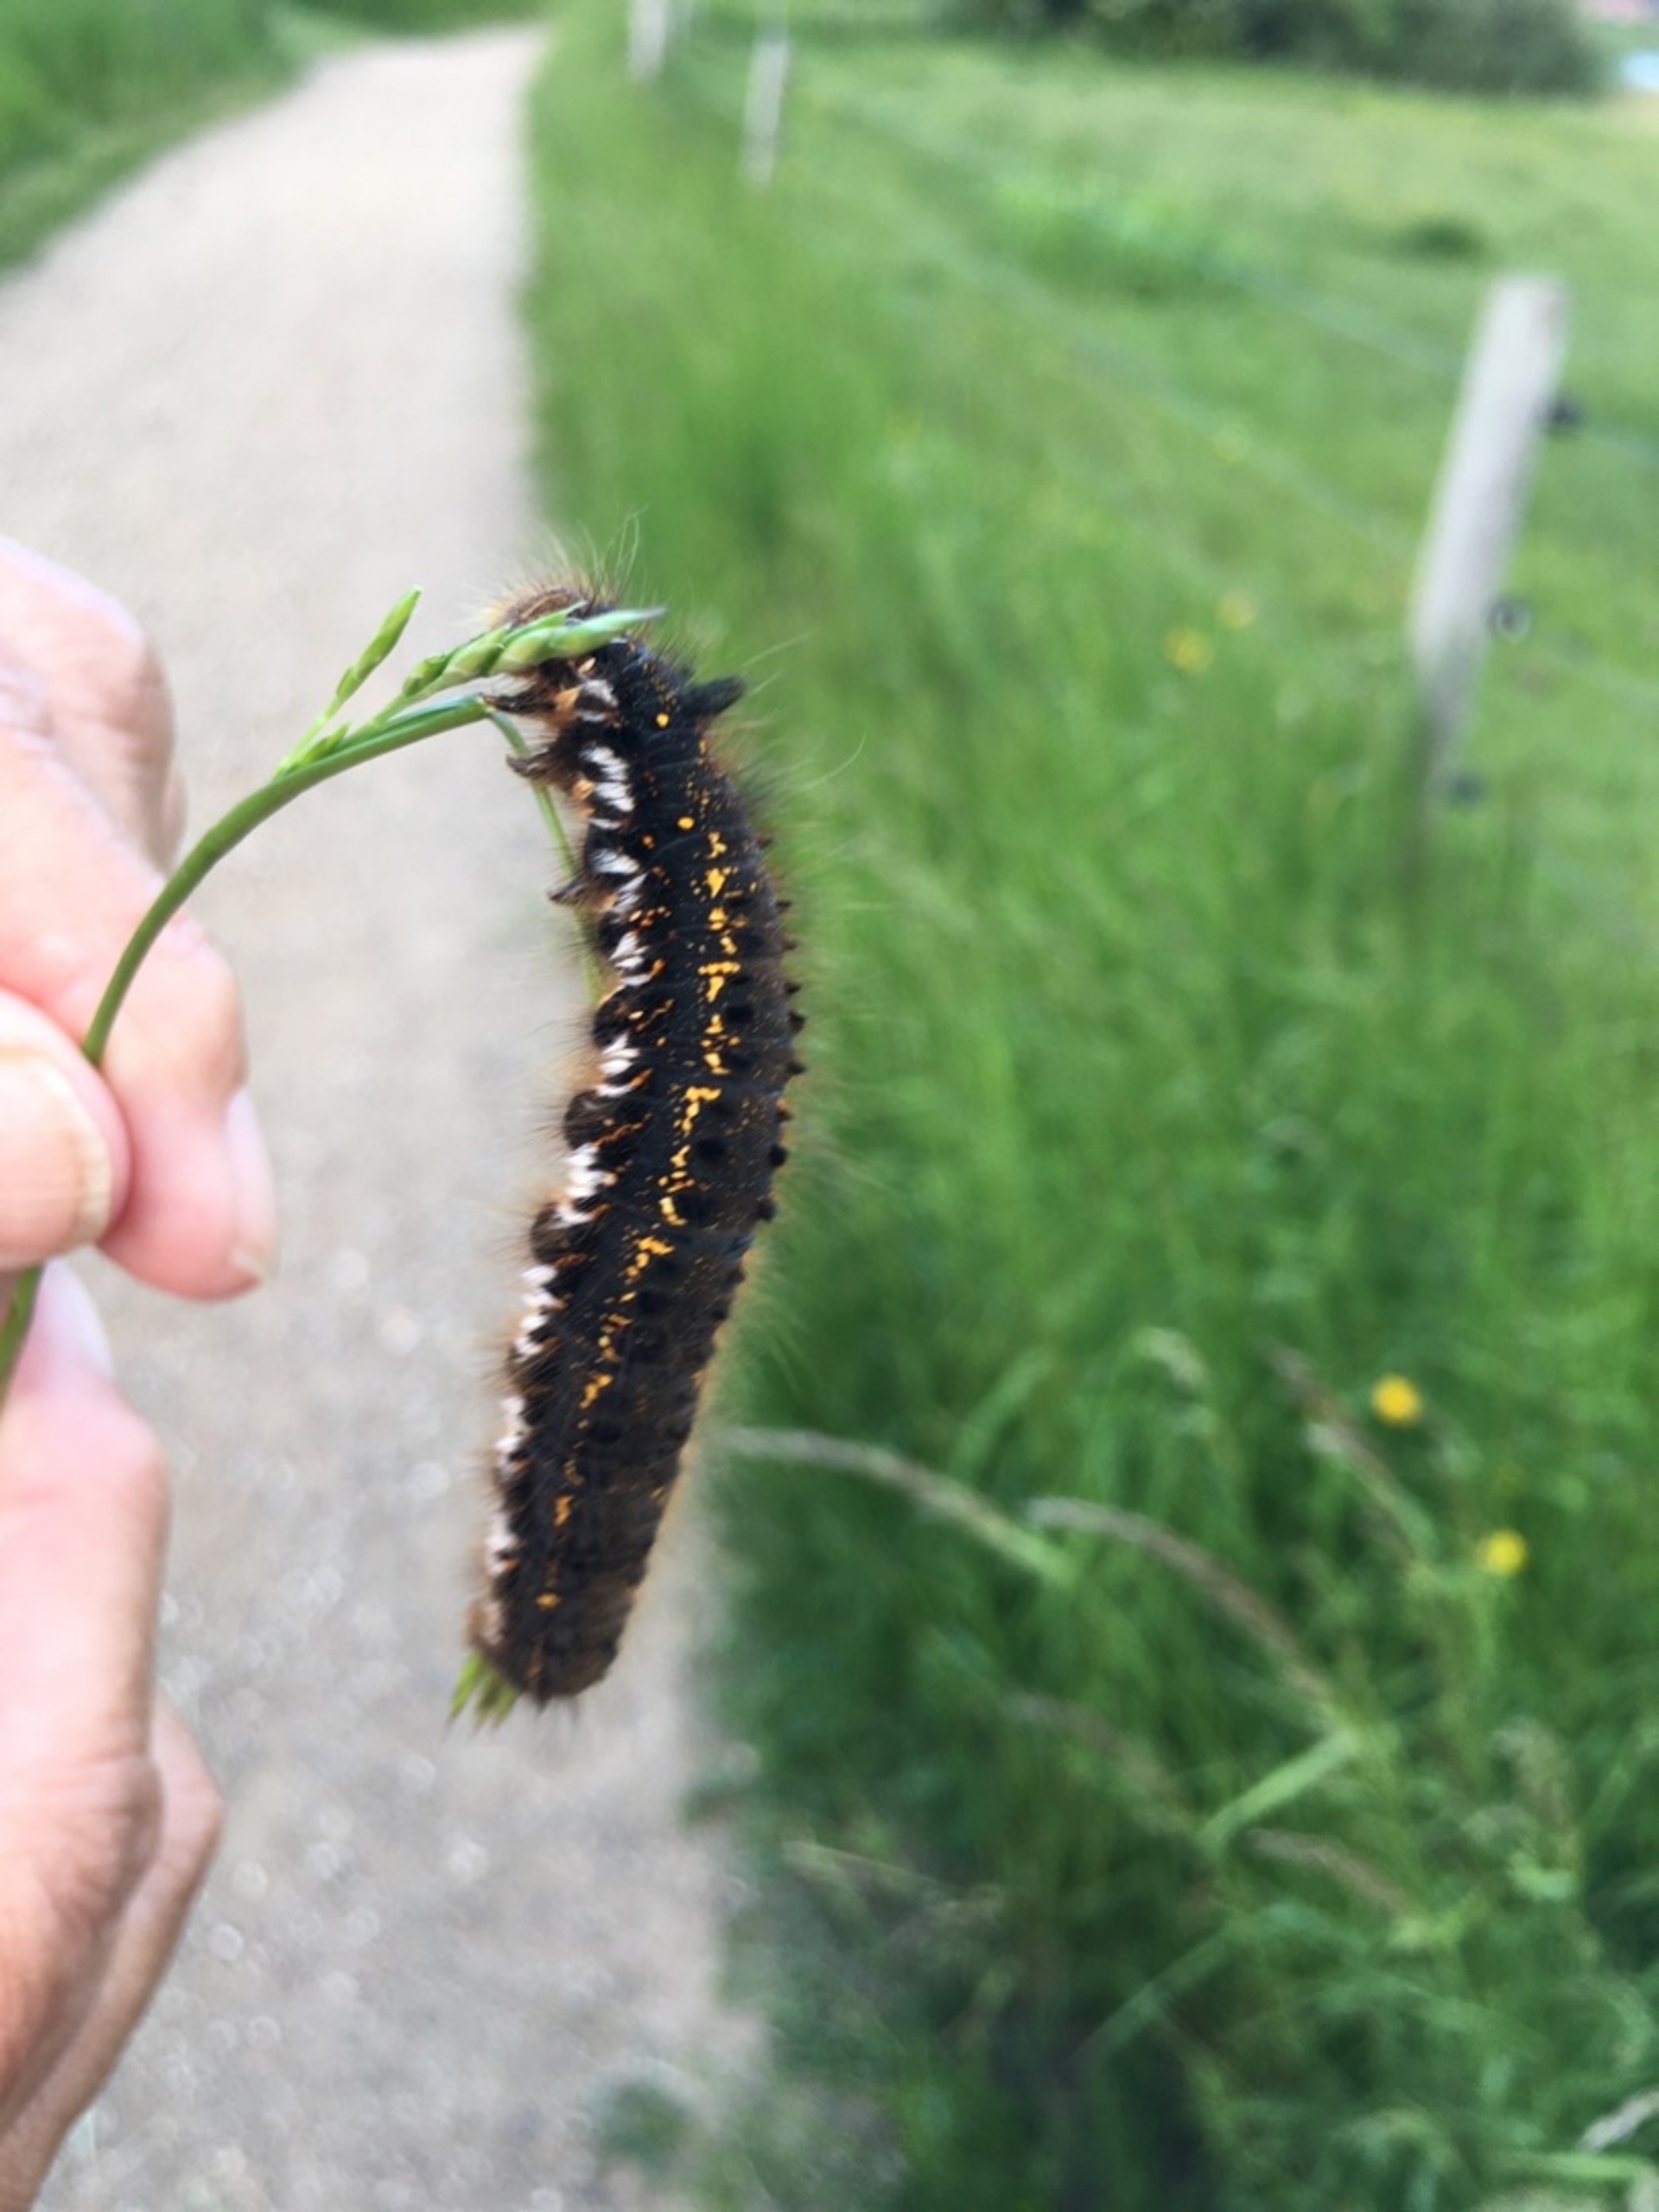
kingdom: Animalia
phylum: Arthropoda
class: Insecta
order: Lepidoptera
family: Lasiocampidae
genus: Euthrix
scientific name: Euthrix potatoria
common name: Græsspinder
